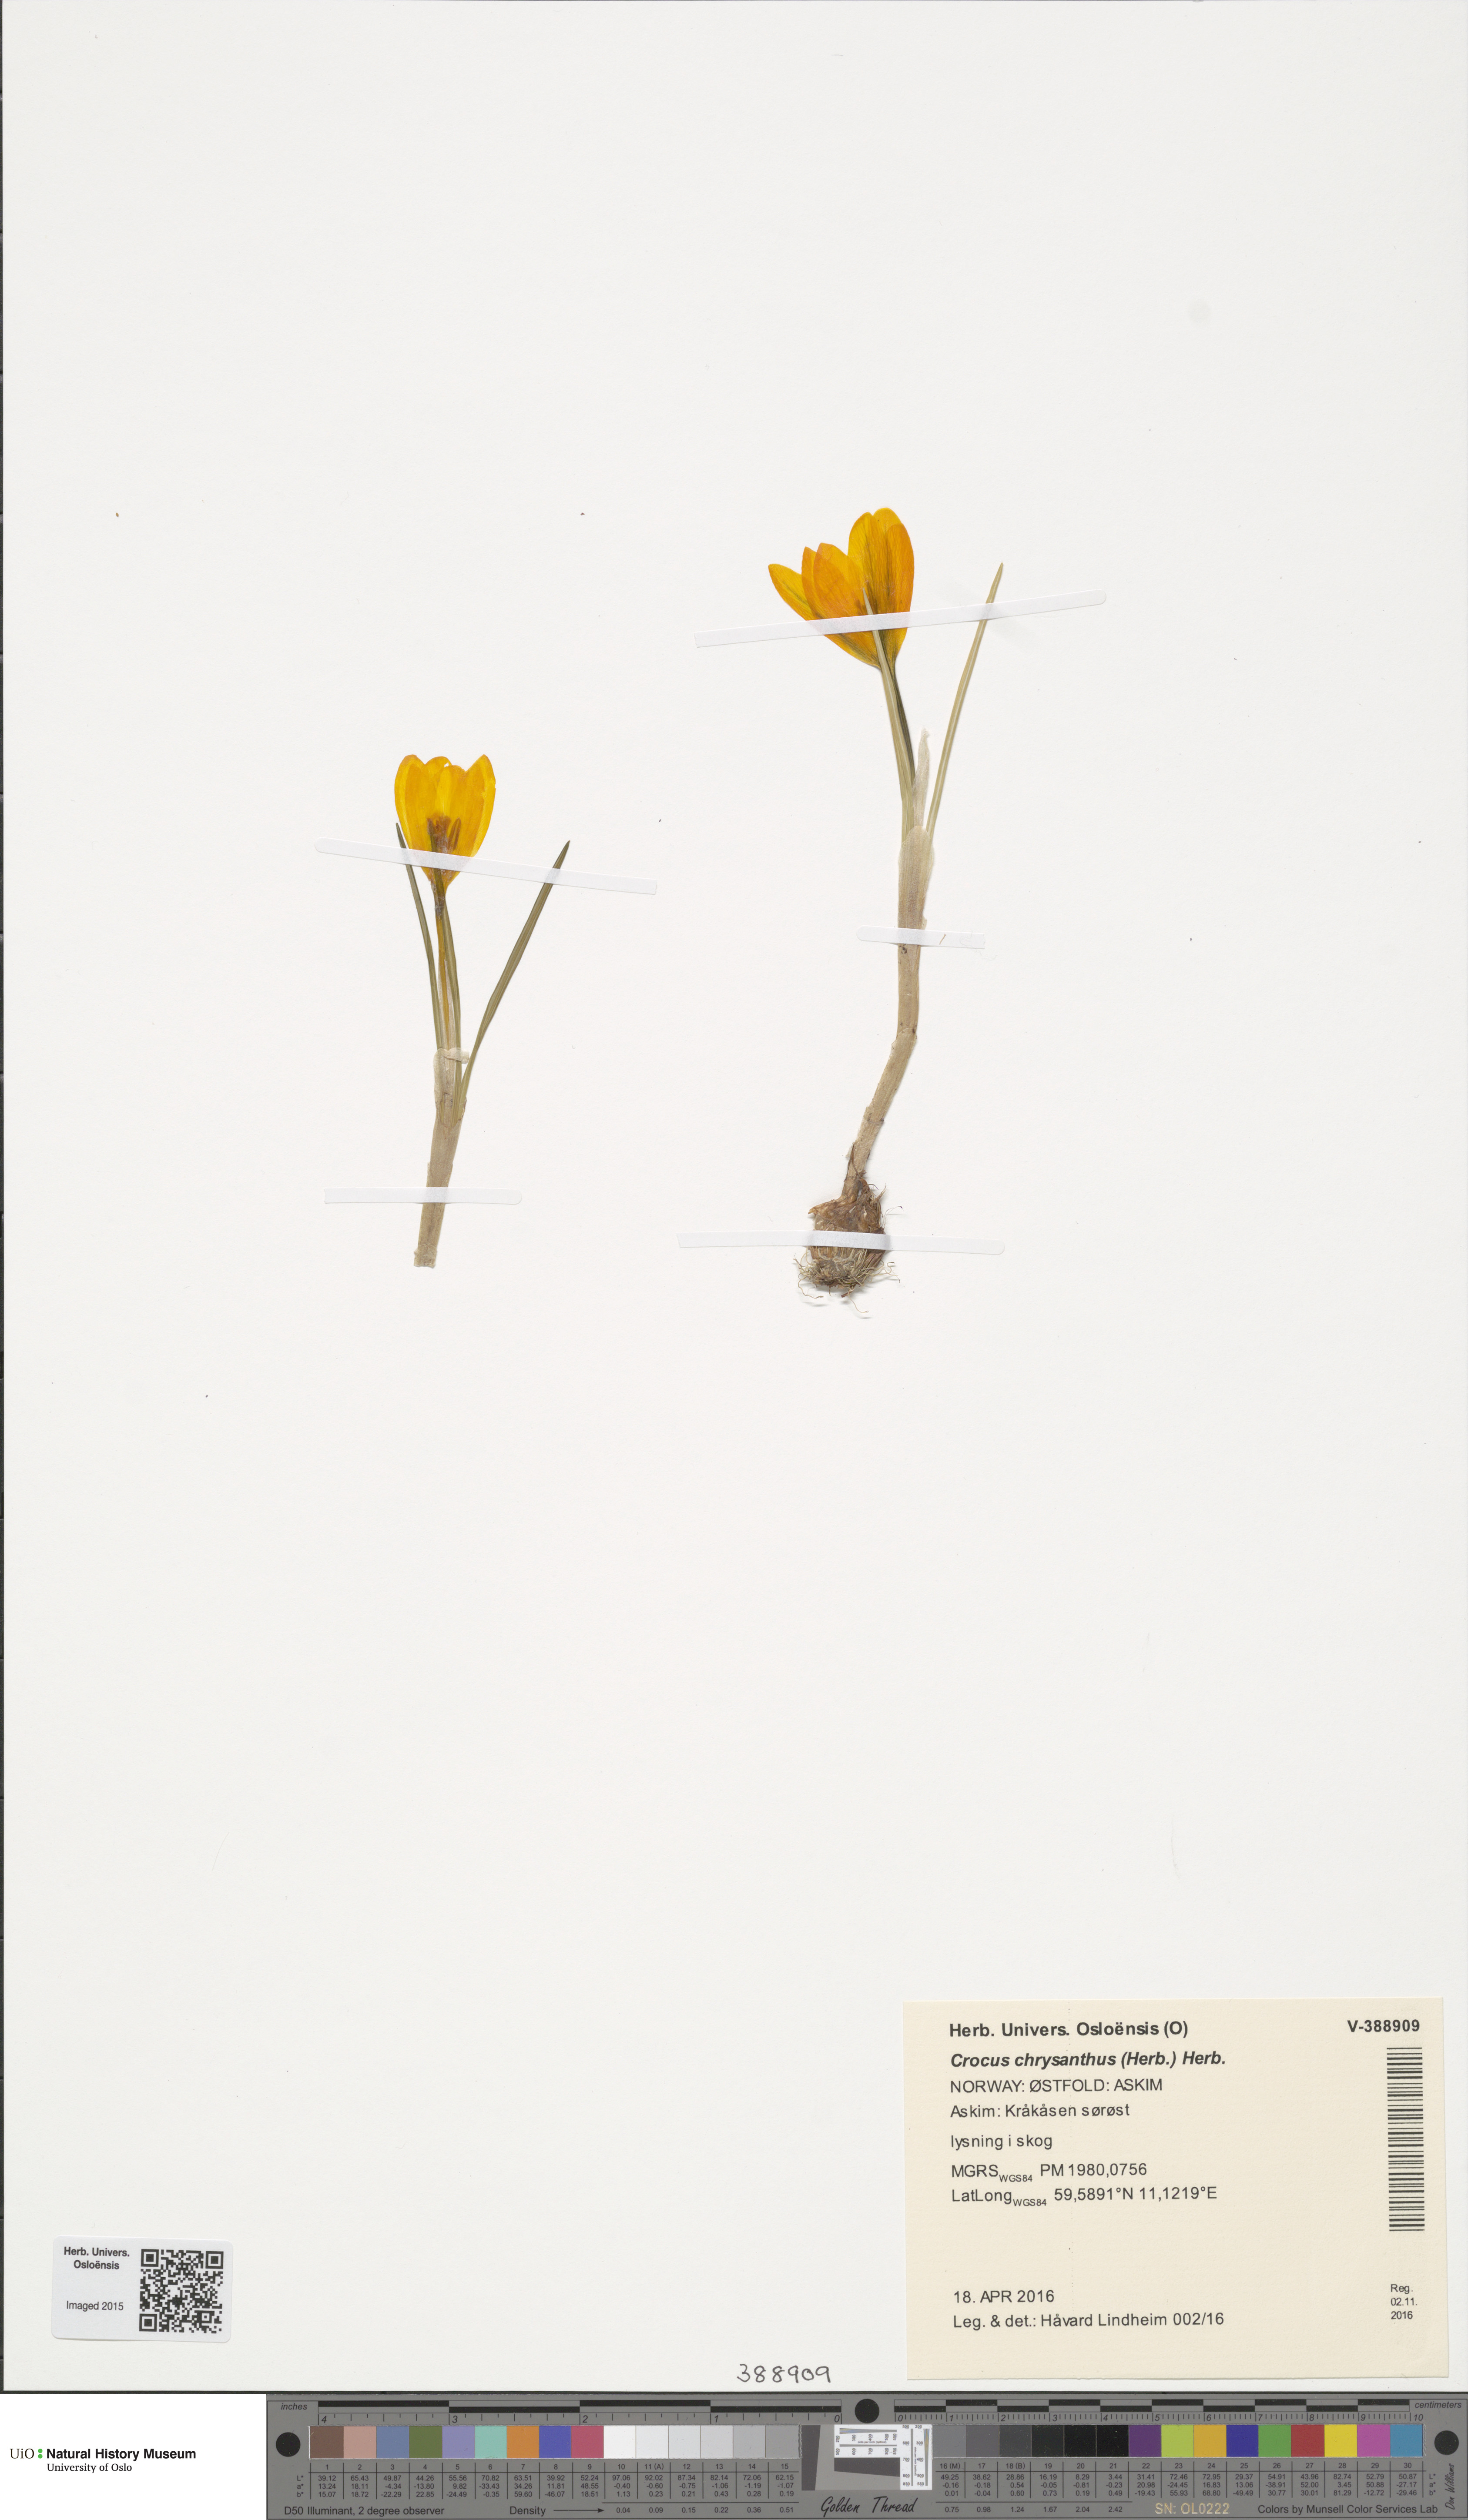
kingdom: Plantae
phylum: Tracheophyta
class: Liliopsida
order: Asparagales
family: Iridaceae
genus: Crocus
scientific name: Crocus chrysanthus
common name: Golden crocus
